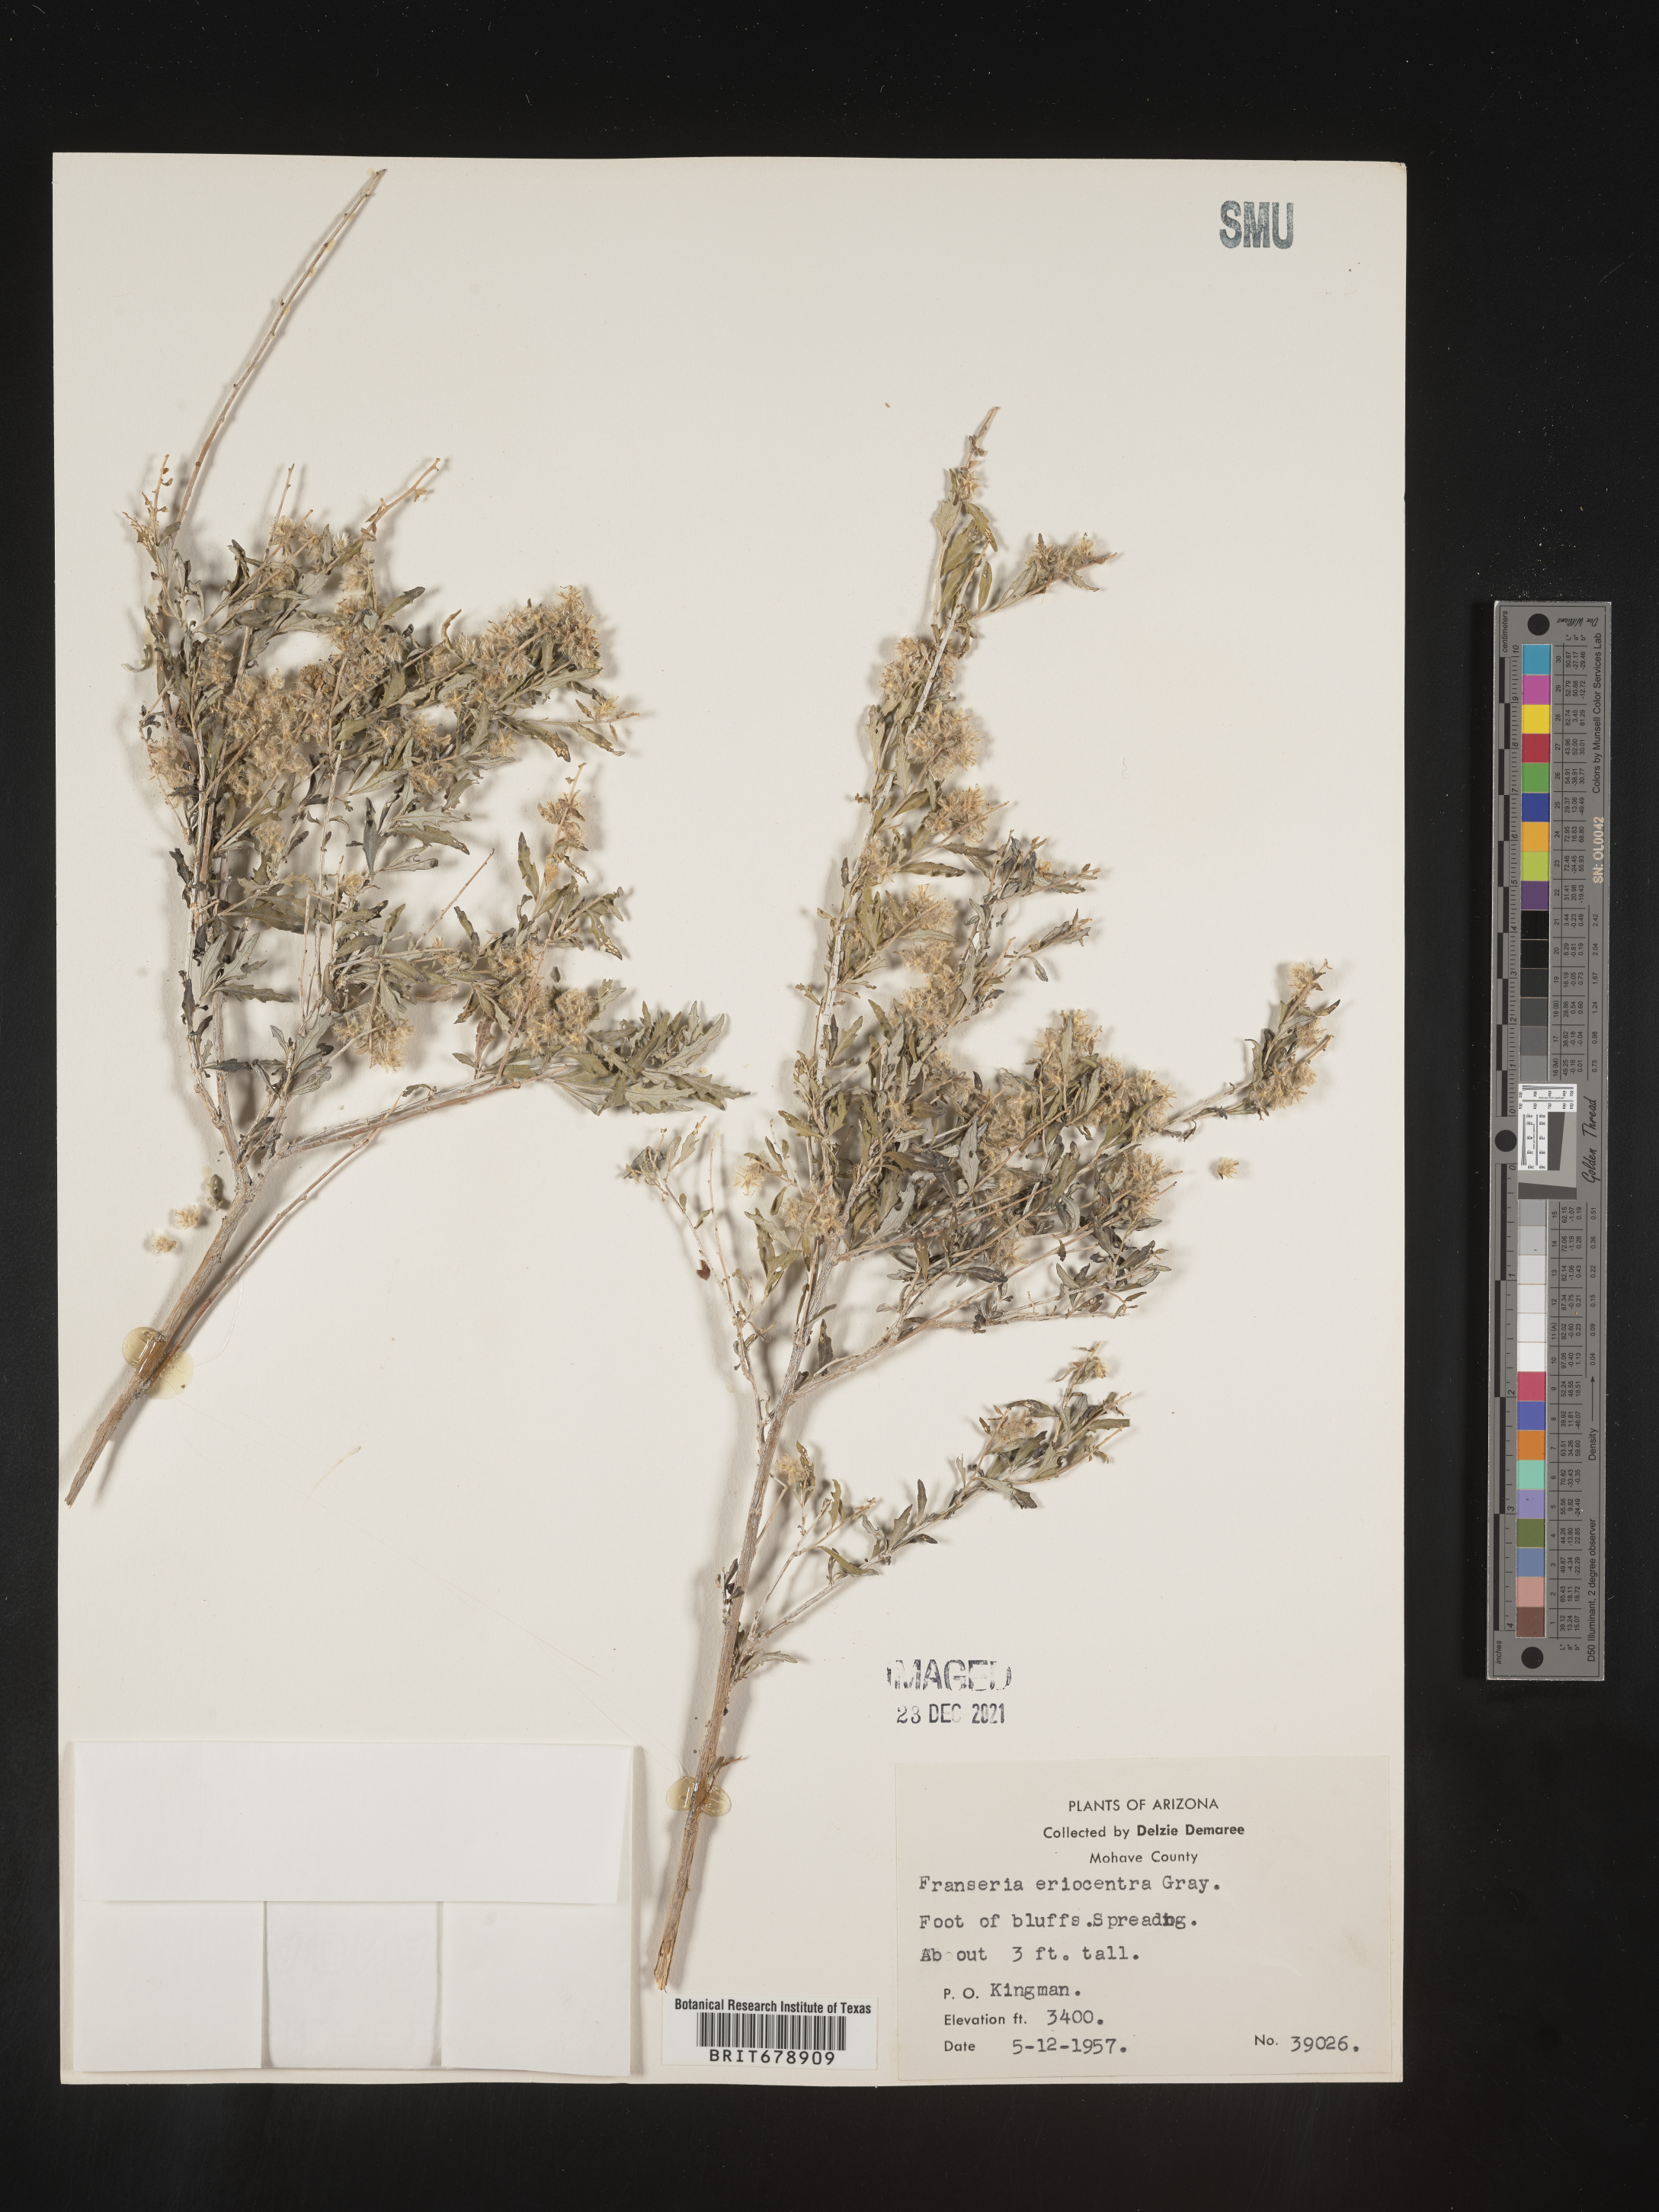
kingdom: Plantae
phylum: Tracheophyta
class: Magnoliopsida
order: Asterales
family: Asteraceae
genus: Ambrosia
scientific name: Ambrosia eriocentra
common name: Woolly bur-sage
